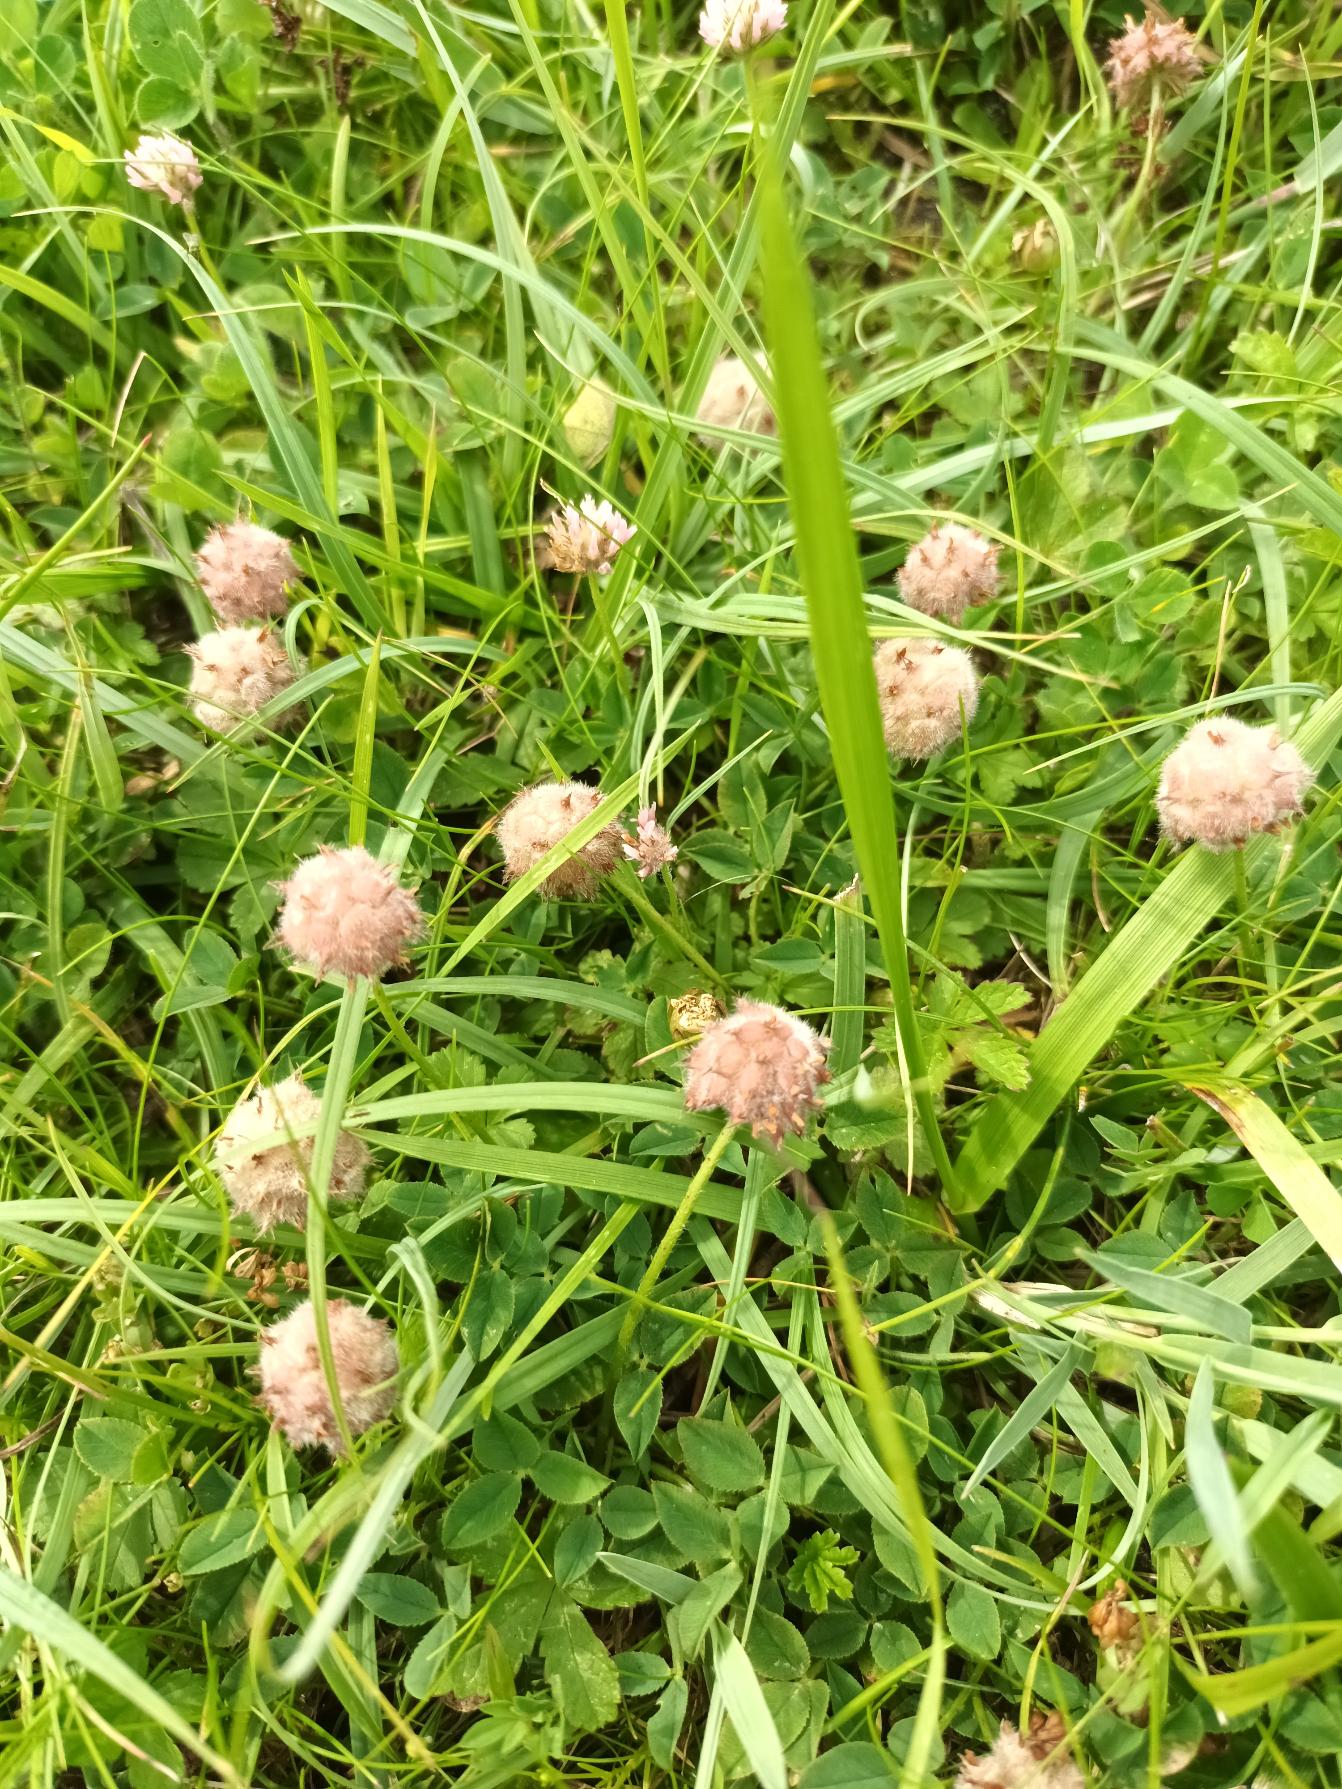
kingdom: Plantae
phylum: Tracheophyta
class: Magnoliopsida
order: Fabales
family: Fabaceae
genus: Trifolium
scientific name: Trifolium fragiferum
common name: Jordbær-kløver
